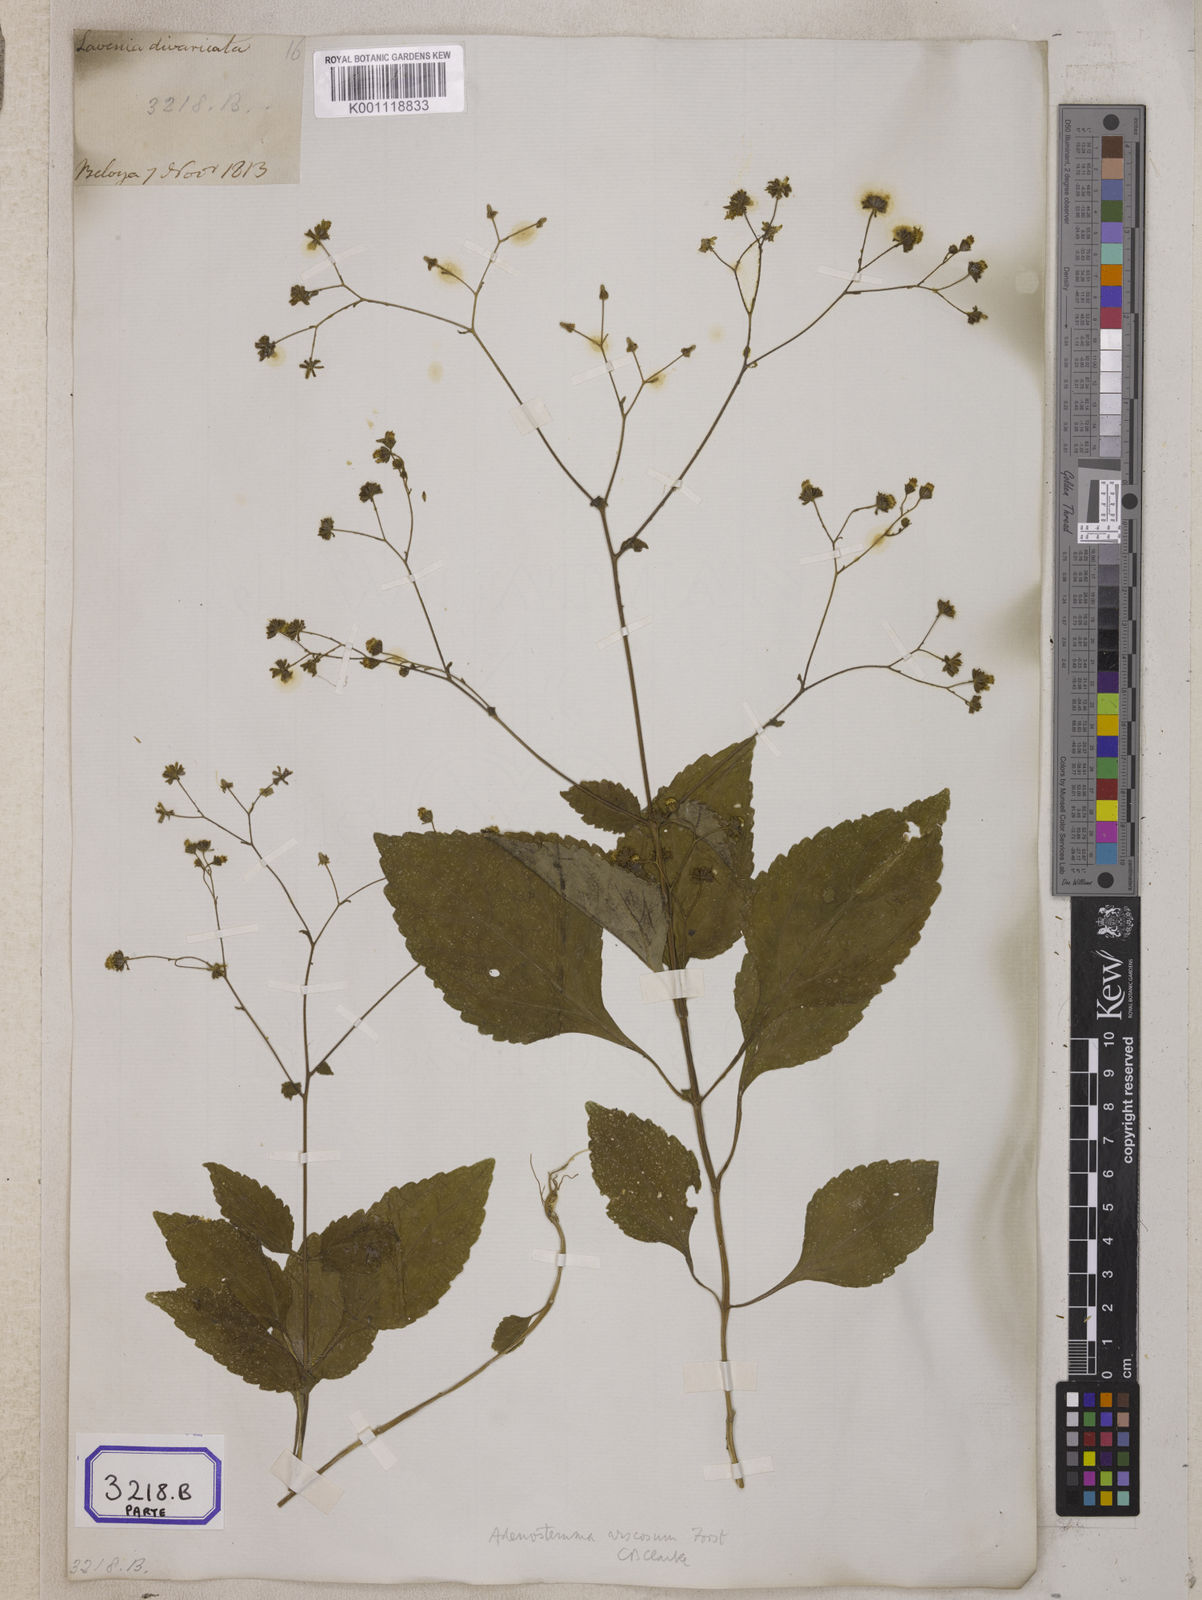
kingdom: Plantae
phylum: Tracheophyta
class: Magnoliopsida
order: Asterales
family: Asteraceae
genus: Adenostemma
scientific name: Adenostemma viscosum
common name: Dungweed
